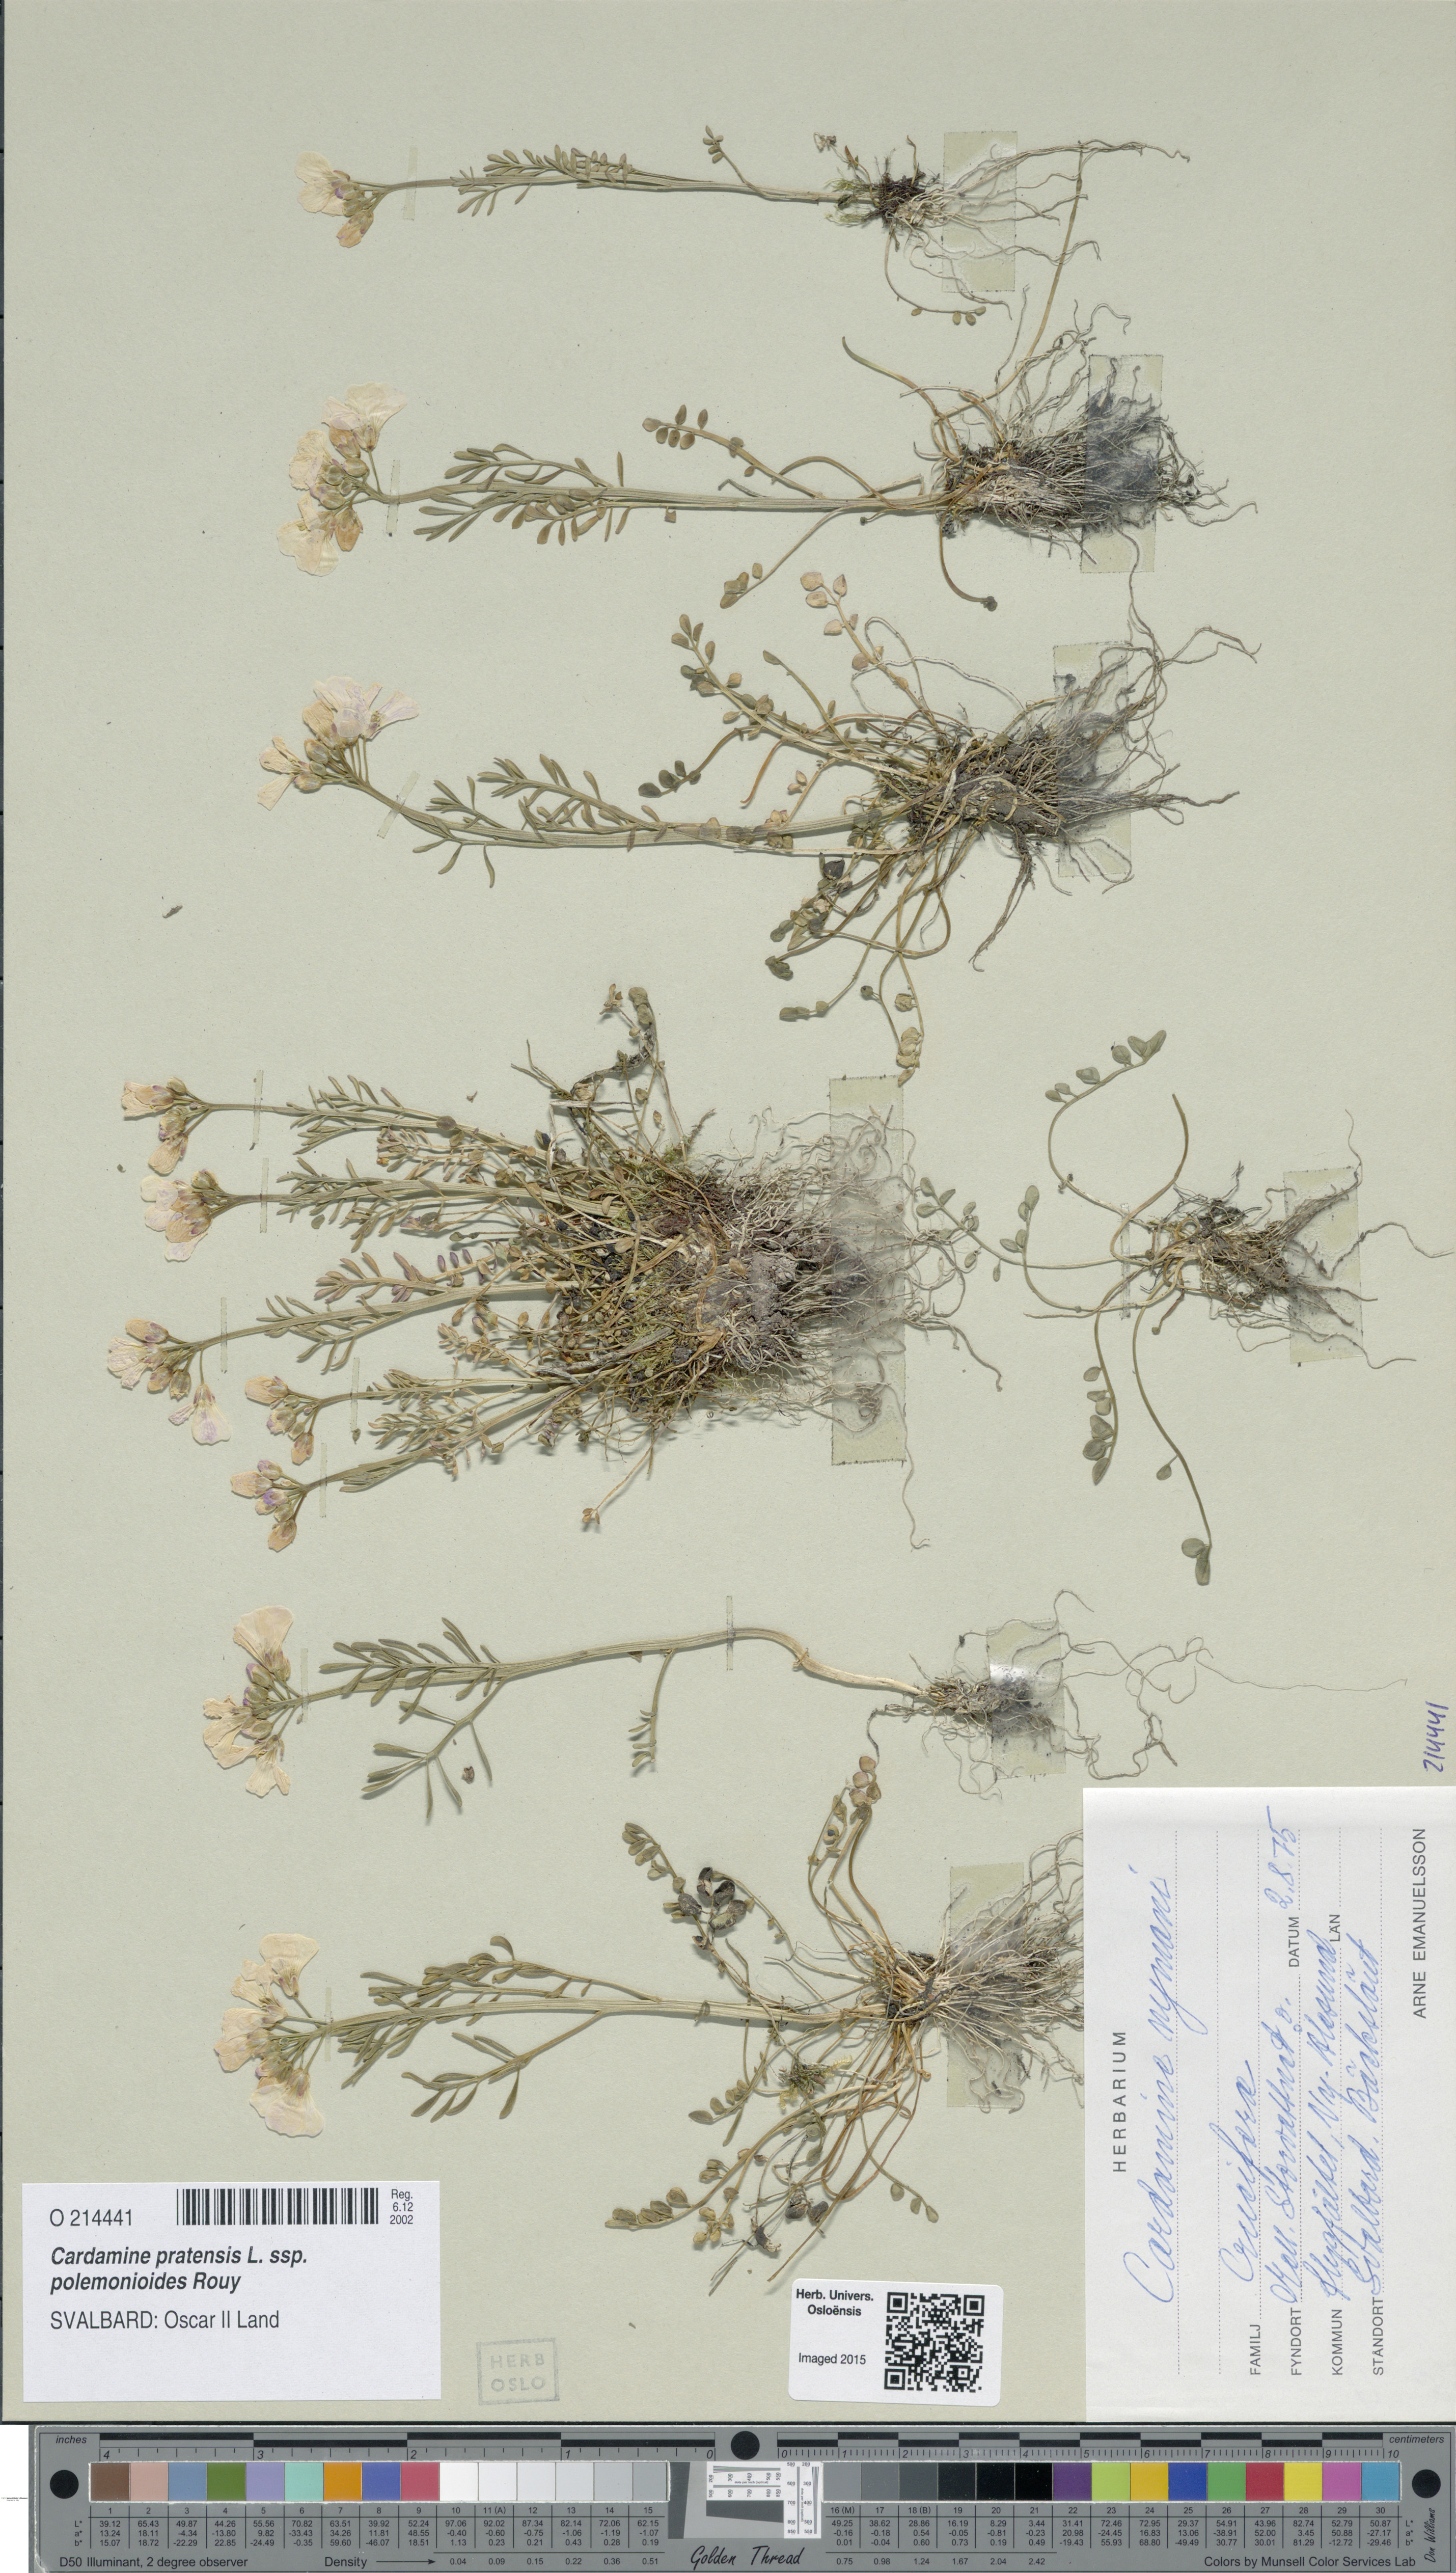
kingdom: Plantae
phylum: Tracheophyta
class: Magnoliopsida
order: Brassicales
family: Brassicaceae
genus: Cardamine
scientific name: Cardamine nymanii
